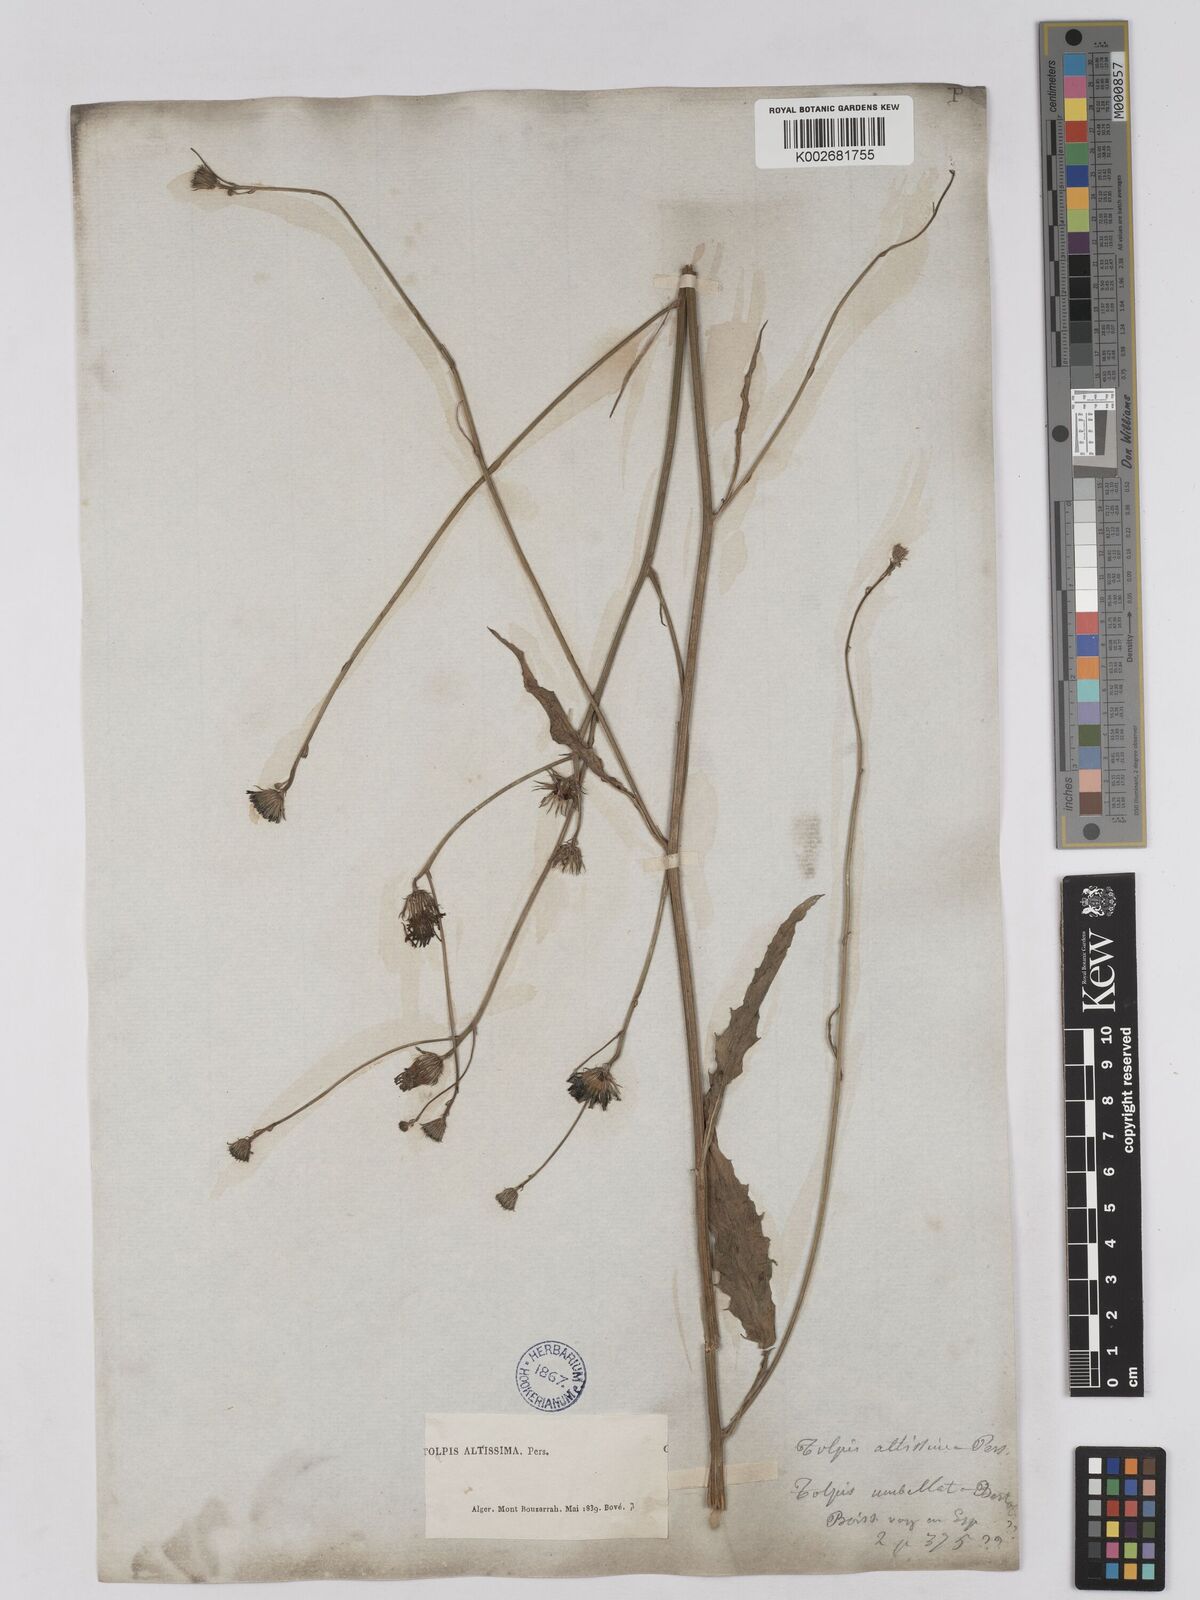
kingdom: Plantae
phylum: Tracheophyta
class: Magnoliopsida
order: Asterales
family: Asteraceae
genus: Tolpis
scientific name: Tolpis virgata
